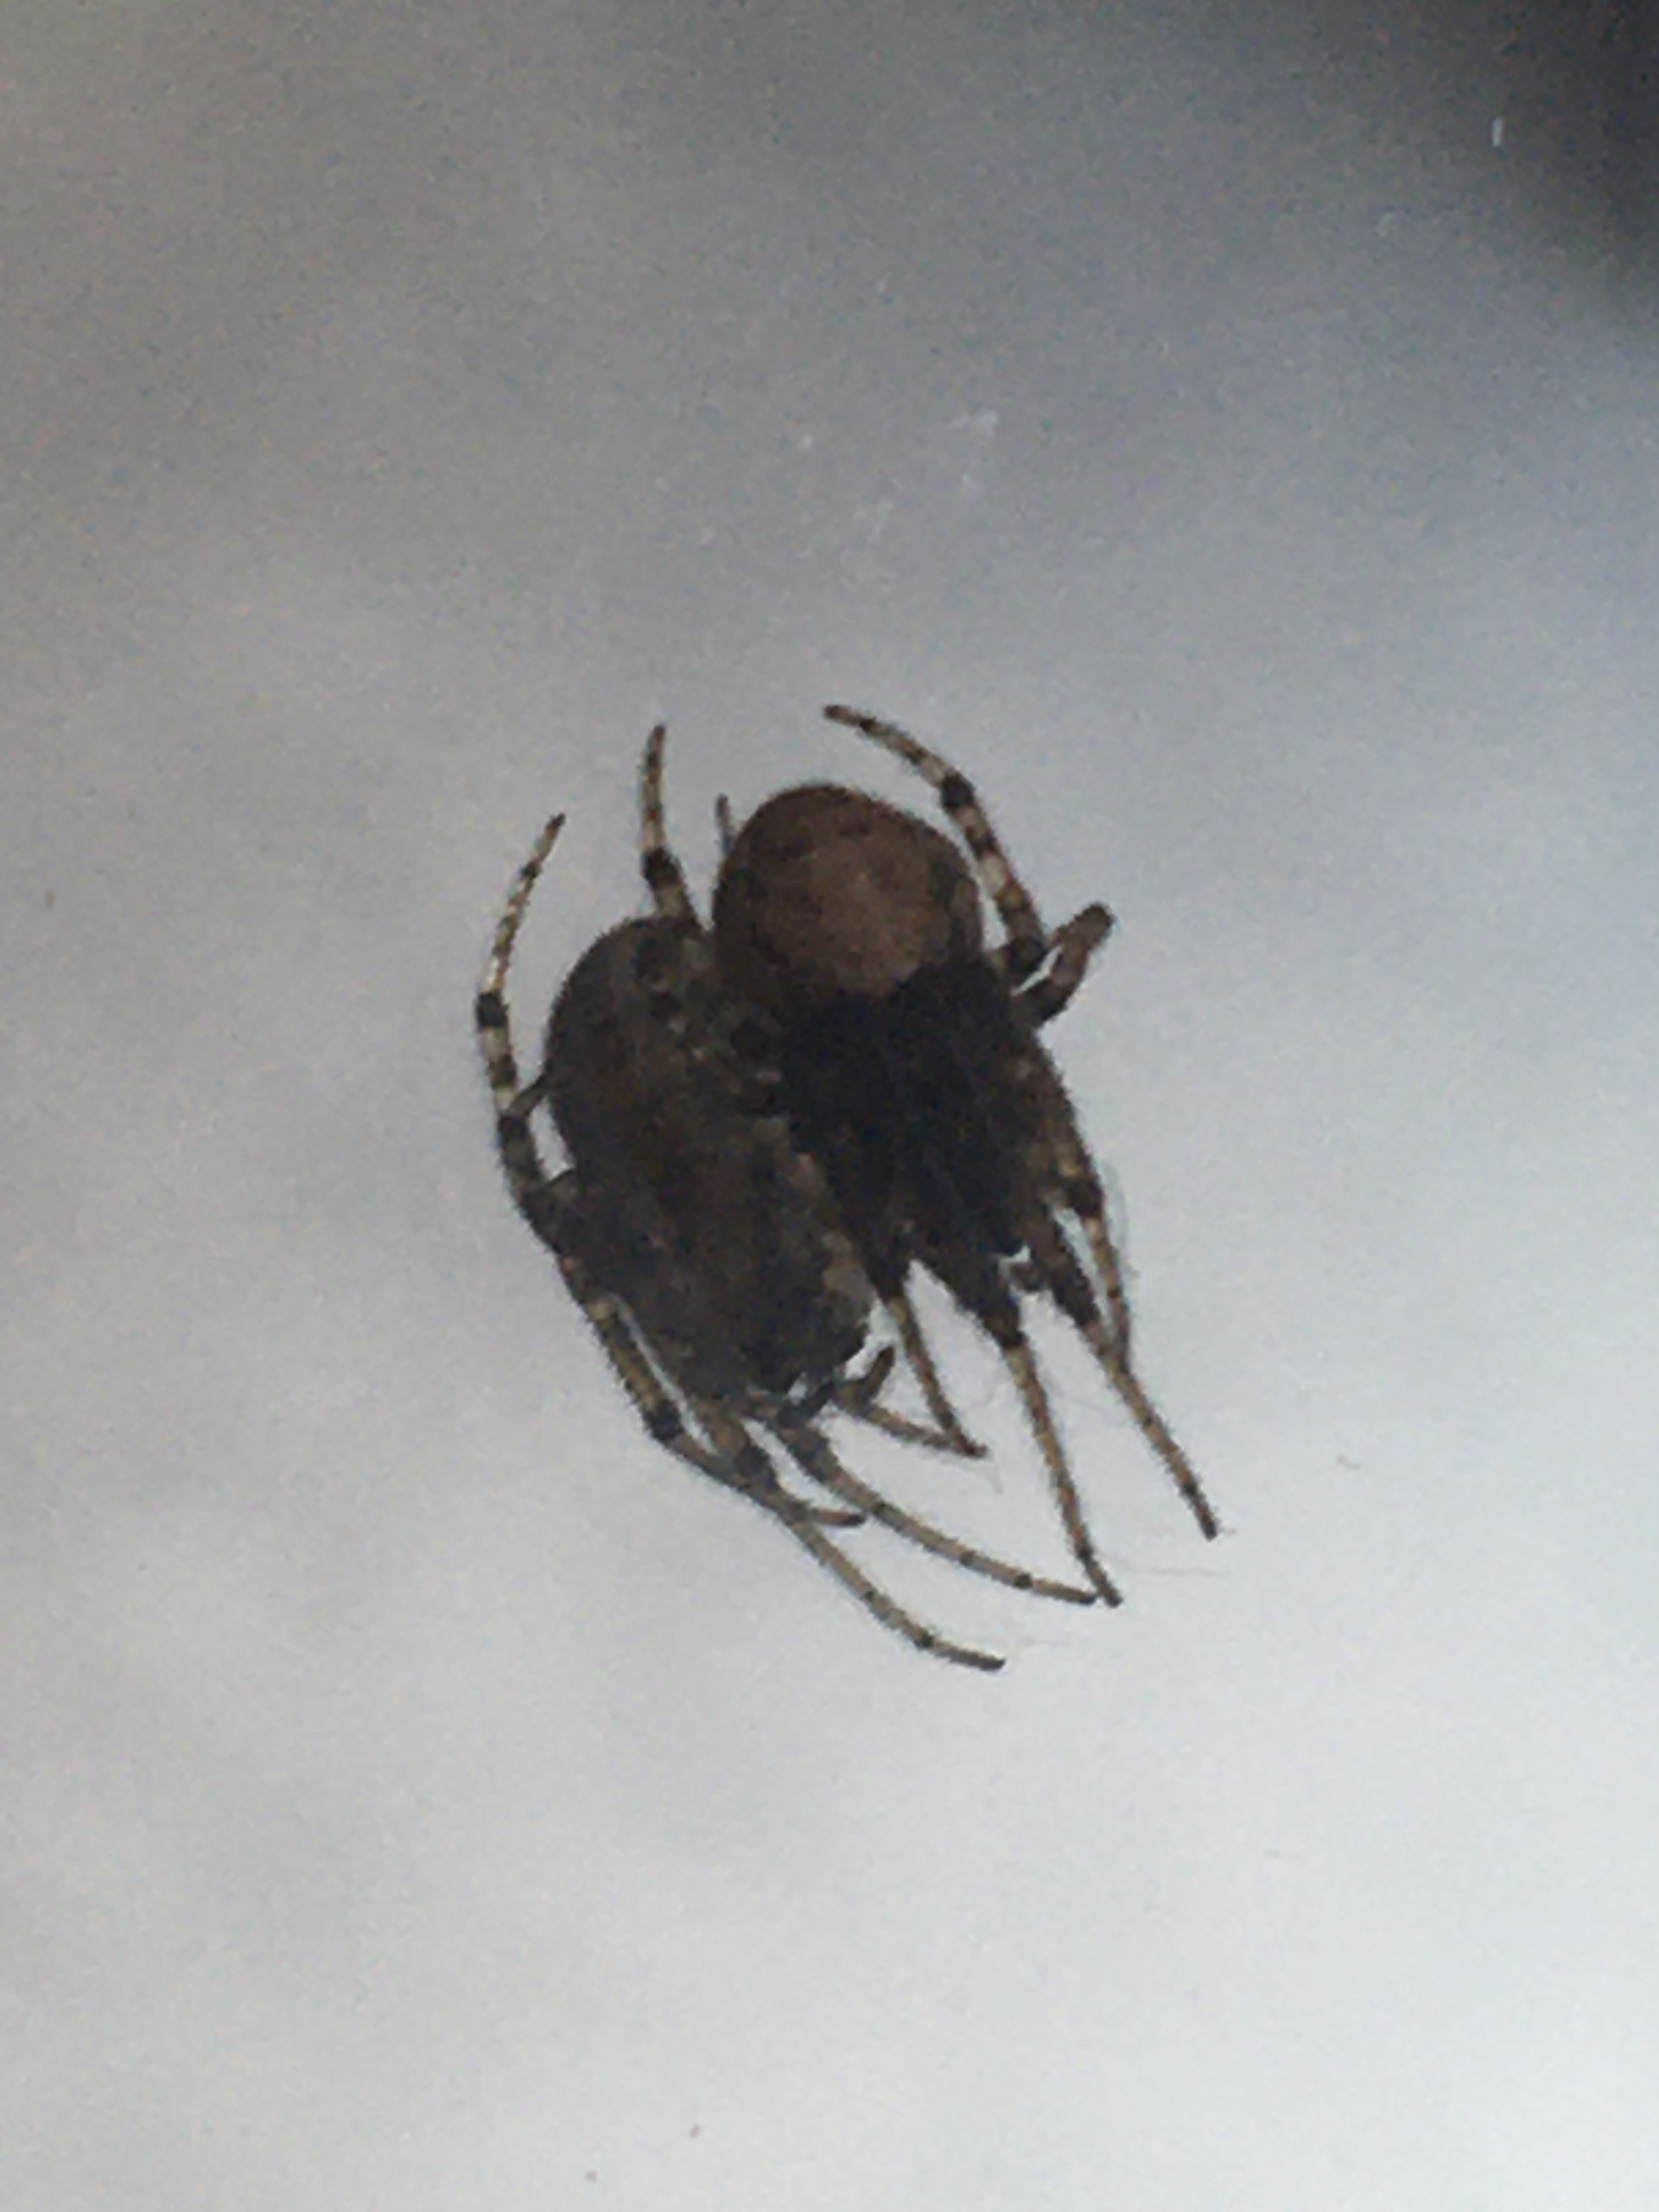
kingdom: Animalia
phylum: Arthropoda
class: Arachnida
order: Araneae
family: Araneidae
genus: Zygiella
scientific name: Zygiella x-notata
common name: Grå sektoredderkop
